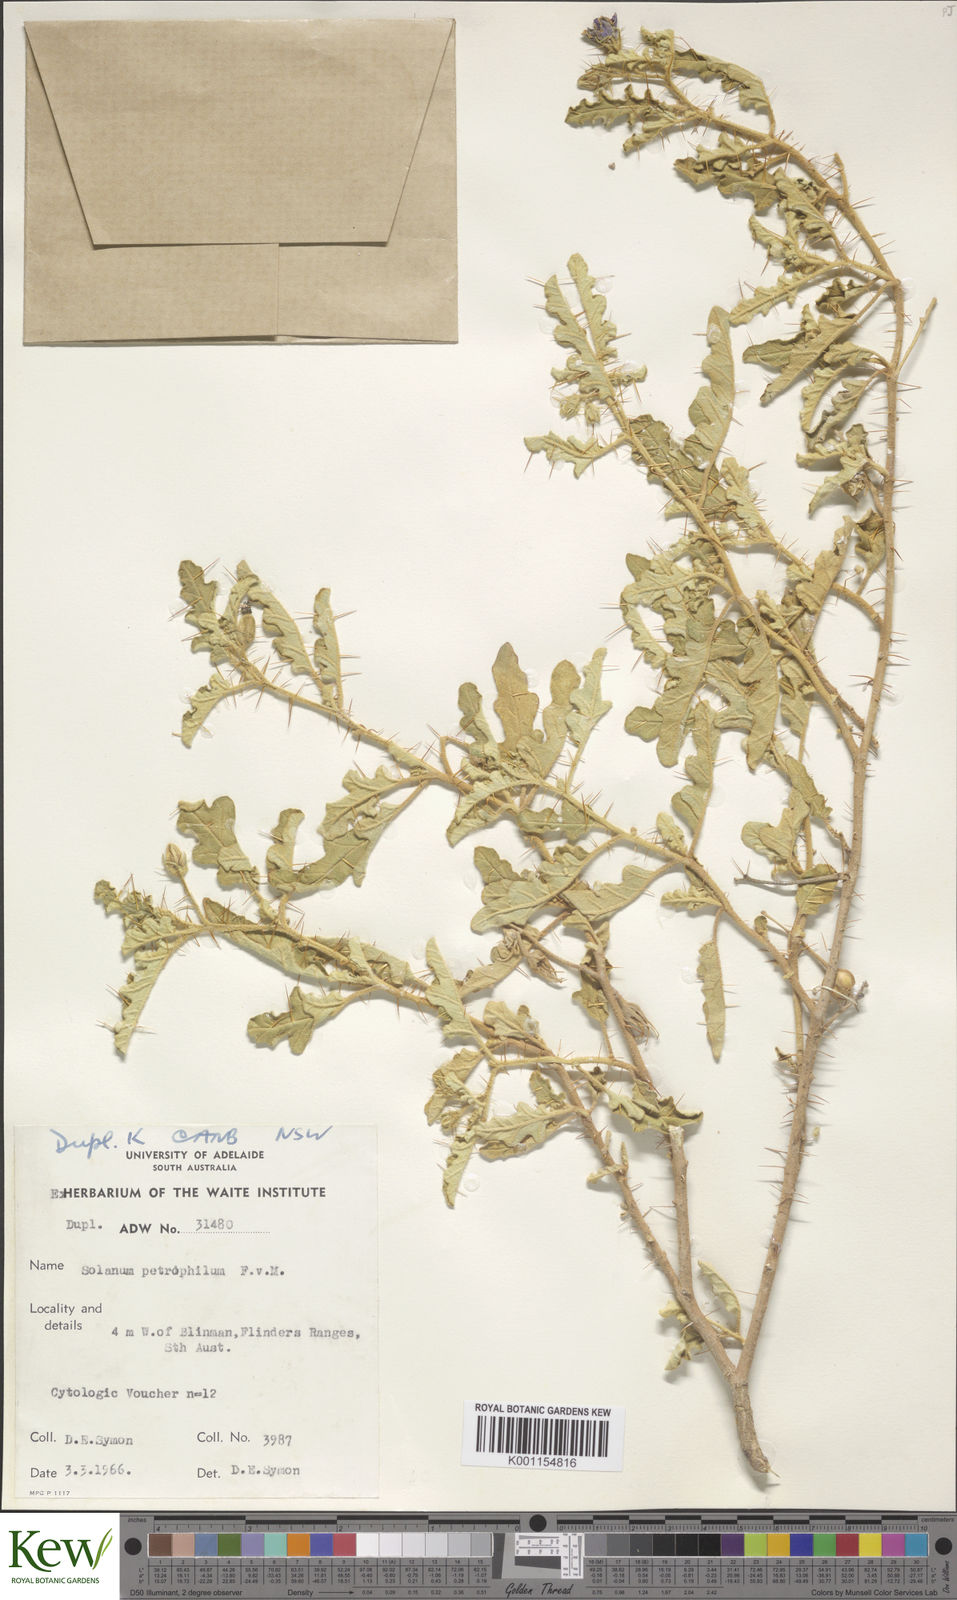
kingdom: Plantae
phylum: Tracheophyta
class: Magnoliopsida
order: Solanales
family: Solanaceae
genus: Solanum
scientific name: Solanum petrophilum
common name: Rock nightshade
